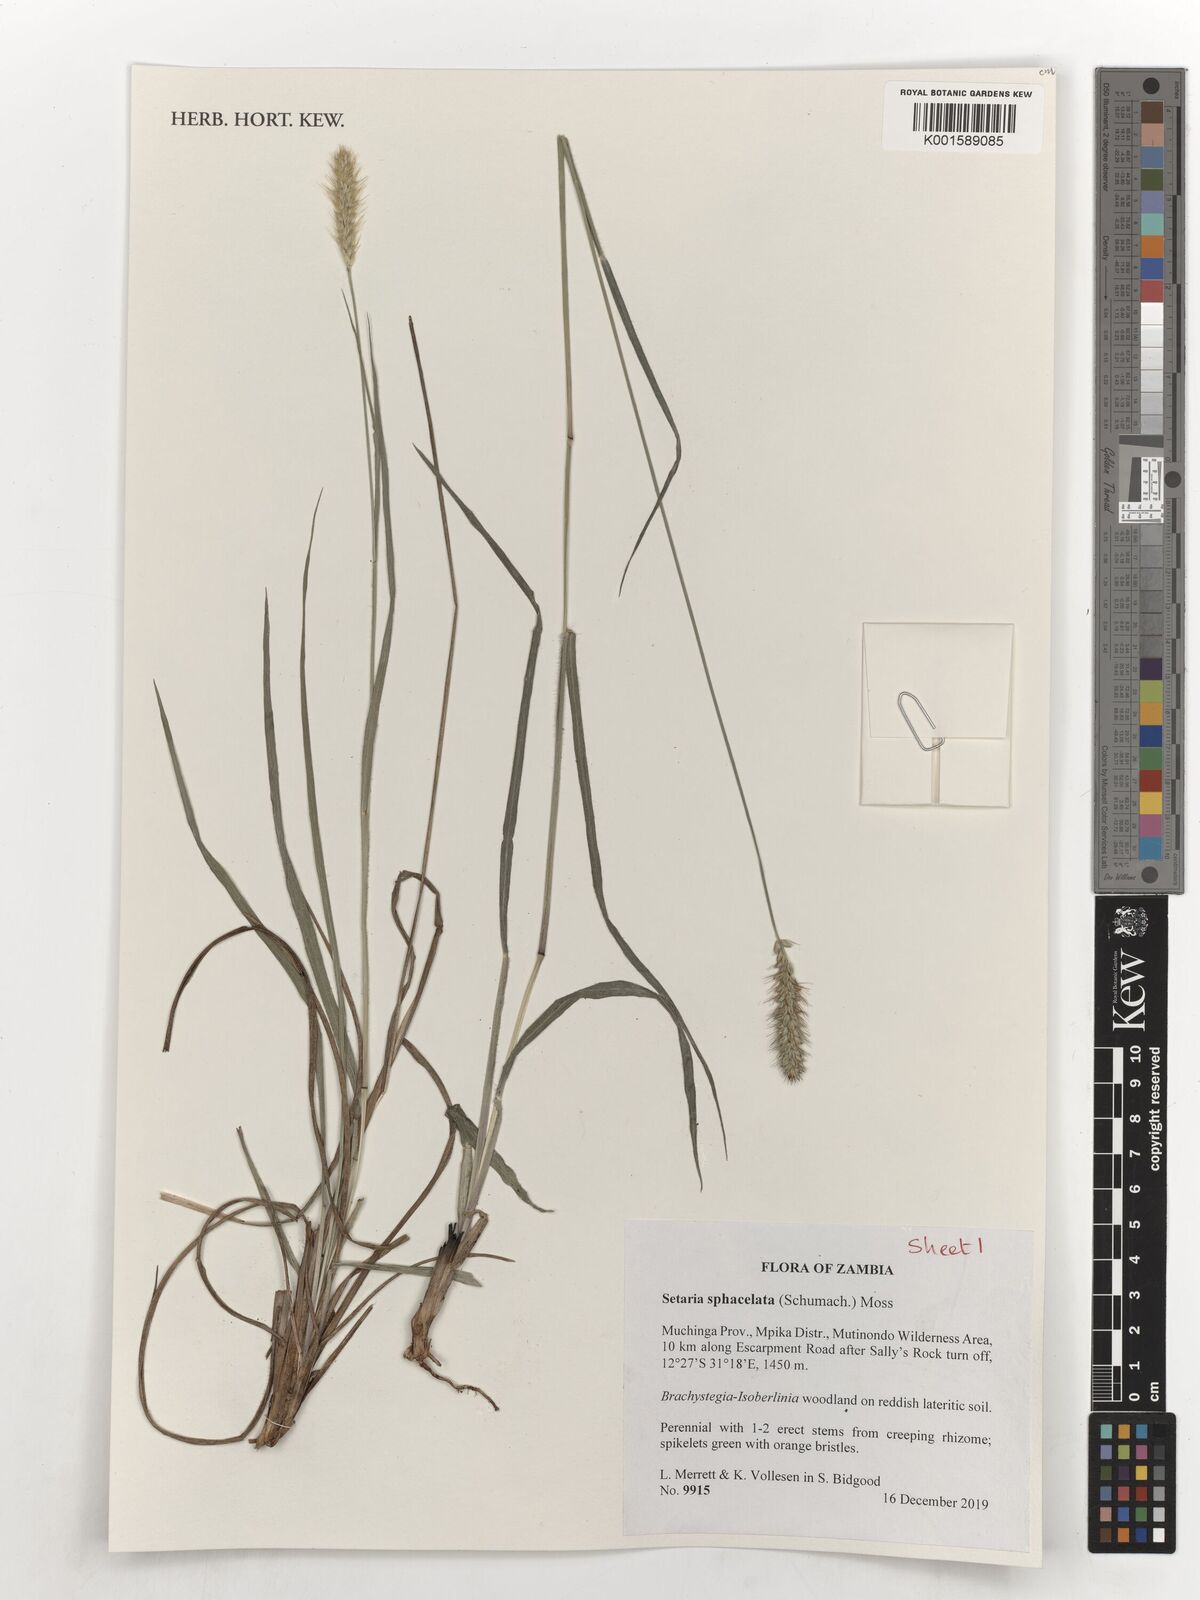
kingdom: Plantae
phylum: Tracheophyta
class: Liliopsida
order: Poales
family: Poaceae
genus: Setaria
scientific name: Setaria sphacelata
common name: African bristlegrass
